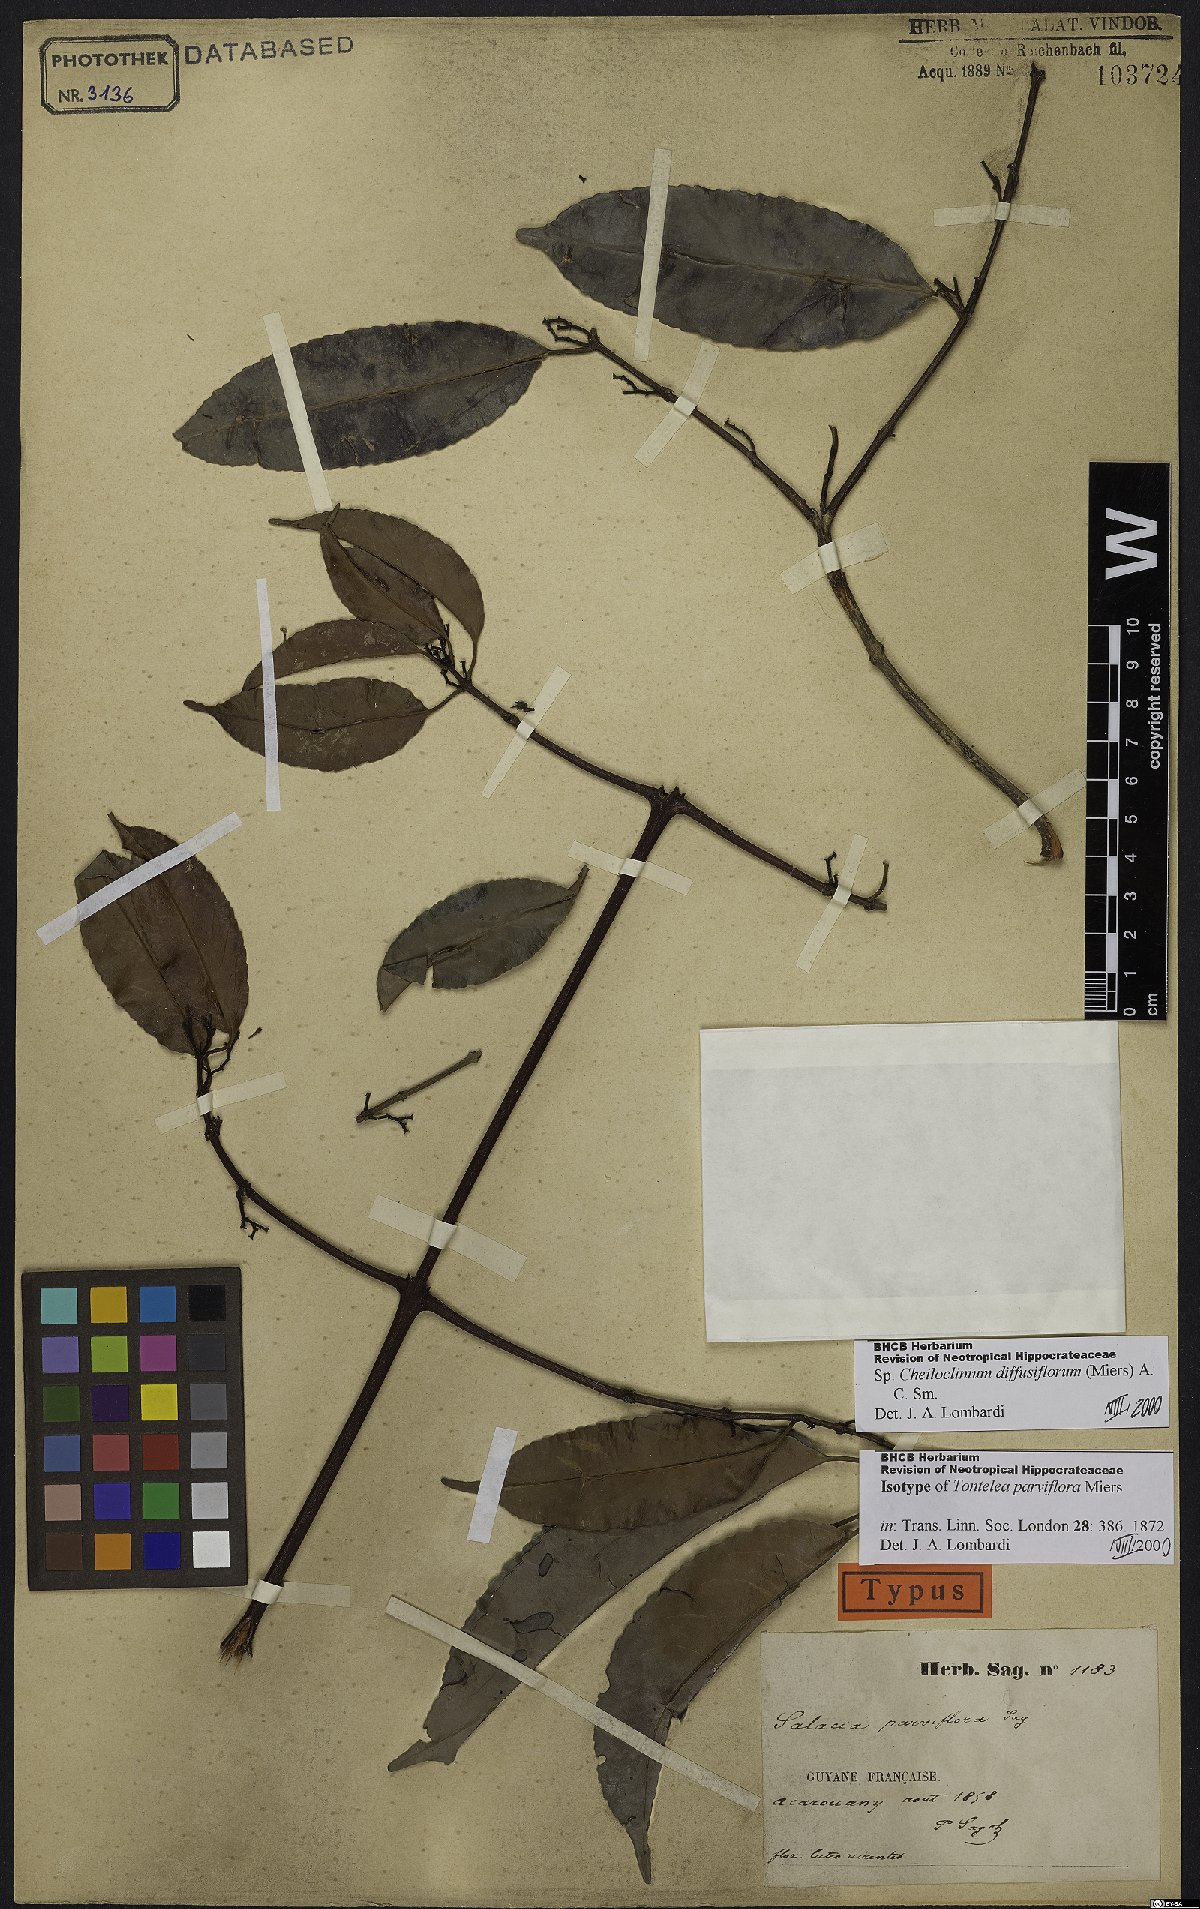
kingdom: Plantae
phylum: Tracheophyta
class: Magnoliopsida
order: Celastrales
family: Celastraceae
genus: Cheiloclinium
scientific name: Cheiloclinium serratum
